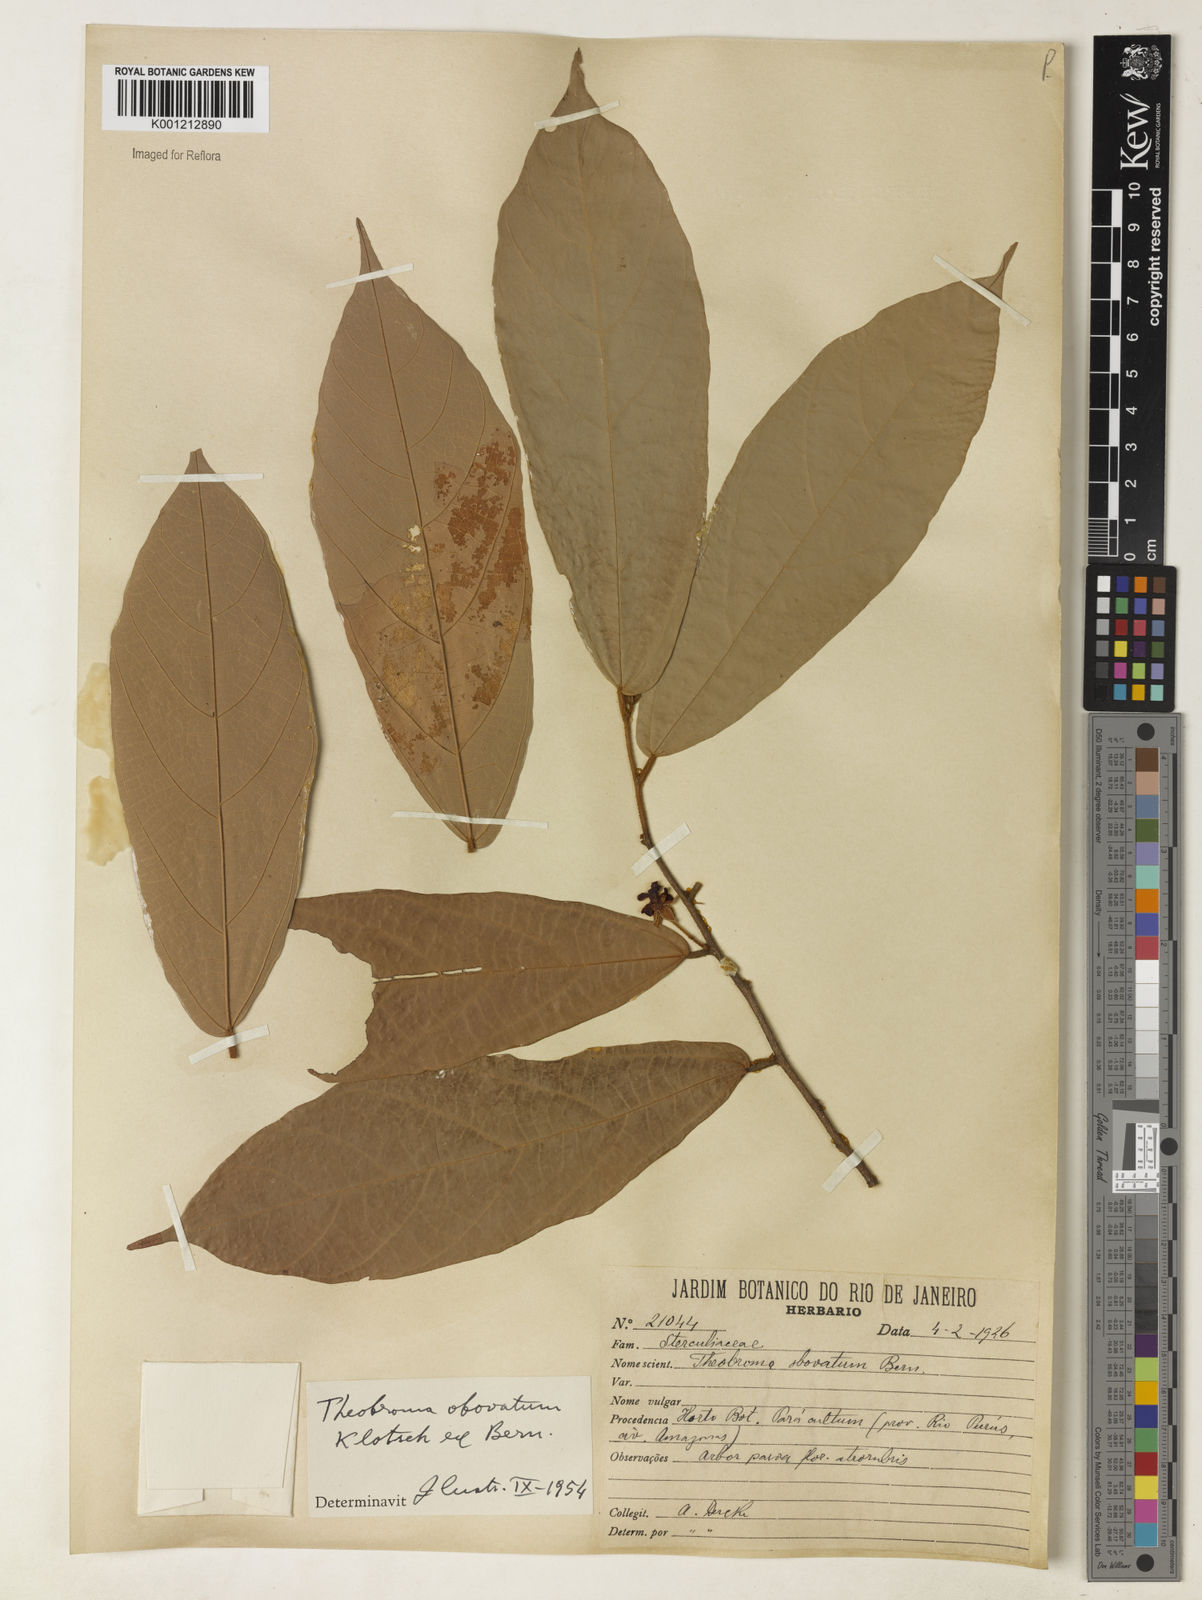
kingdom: Plantae
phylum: Tracheophyta
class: Magnoliopsida
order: Malvales
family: Malvaceae
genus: Theobroma
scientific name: Theobroma obovatum
